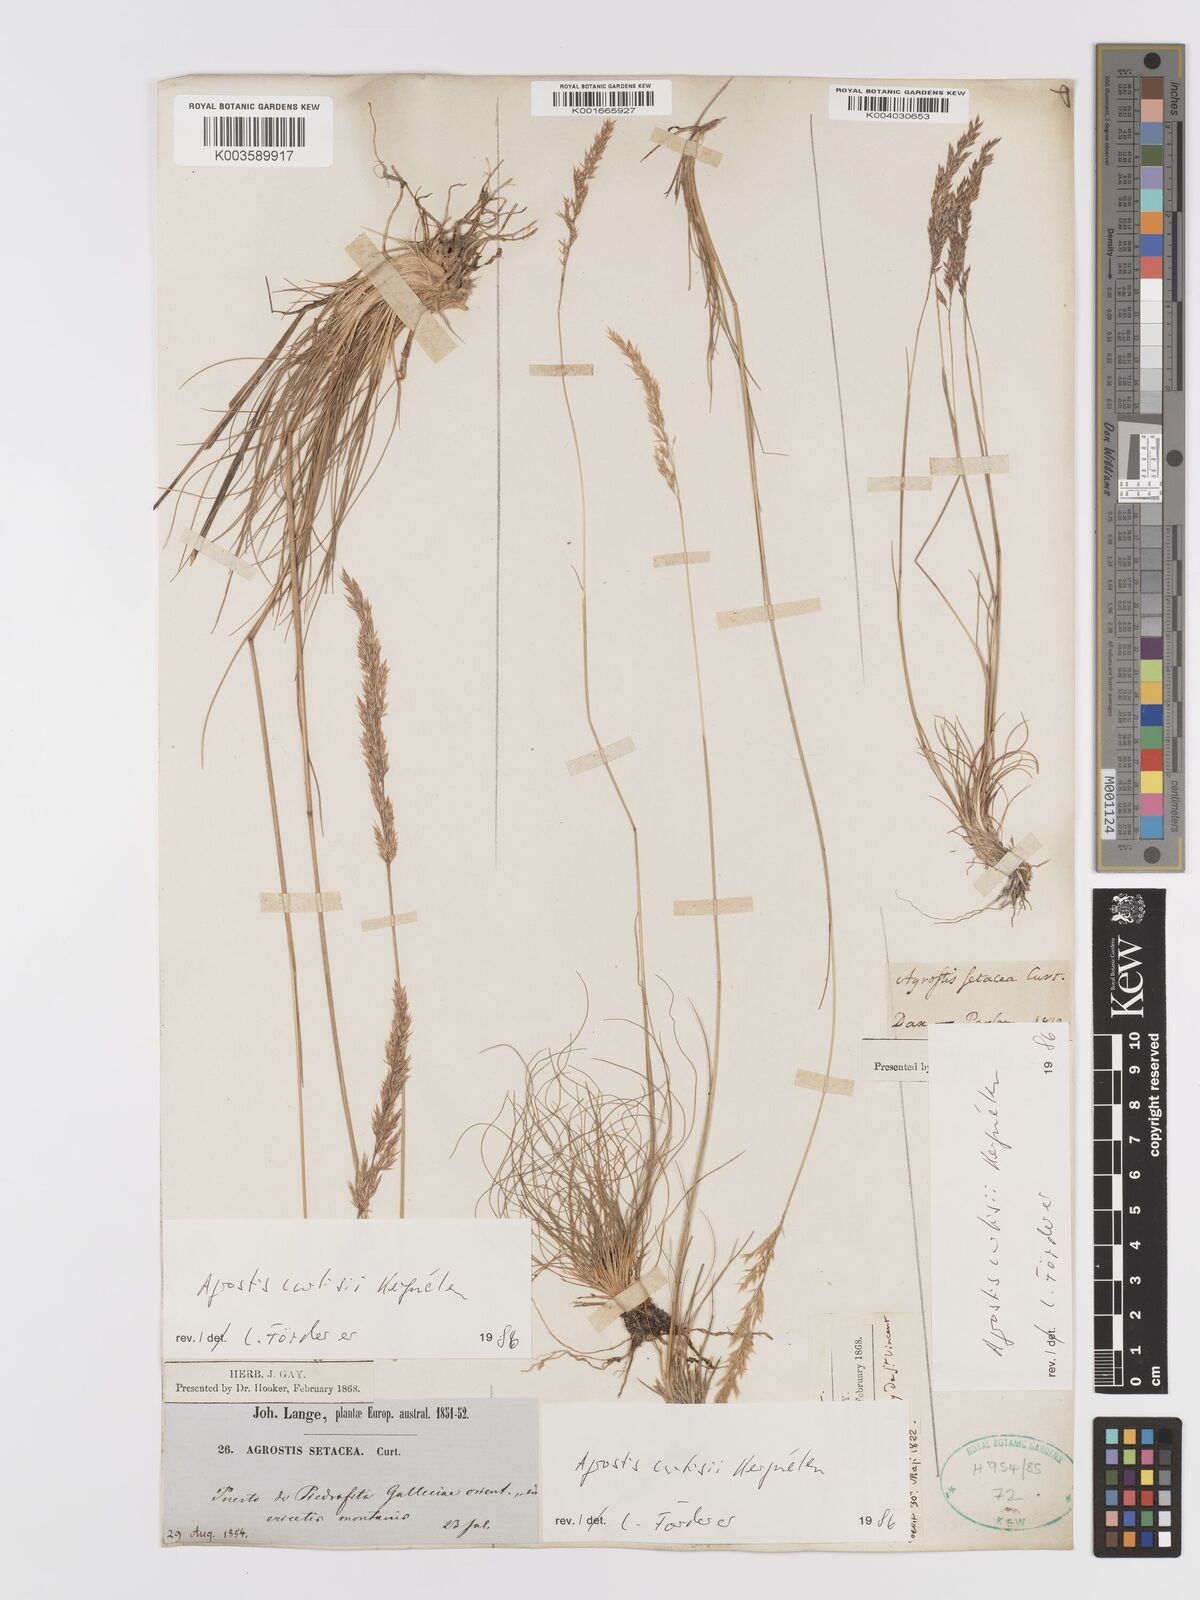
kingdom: Plantae
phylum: Tracheophyta
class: Liliopsida
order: Poales
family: Poaceae
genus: Alpagrostis
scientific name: Alpagrostis setacea
